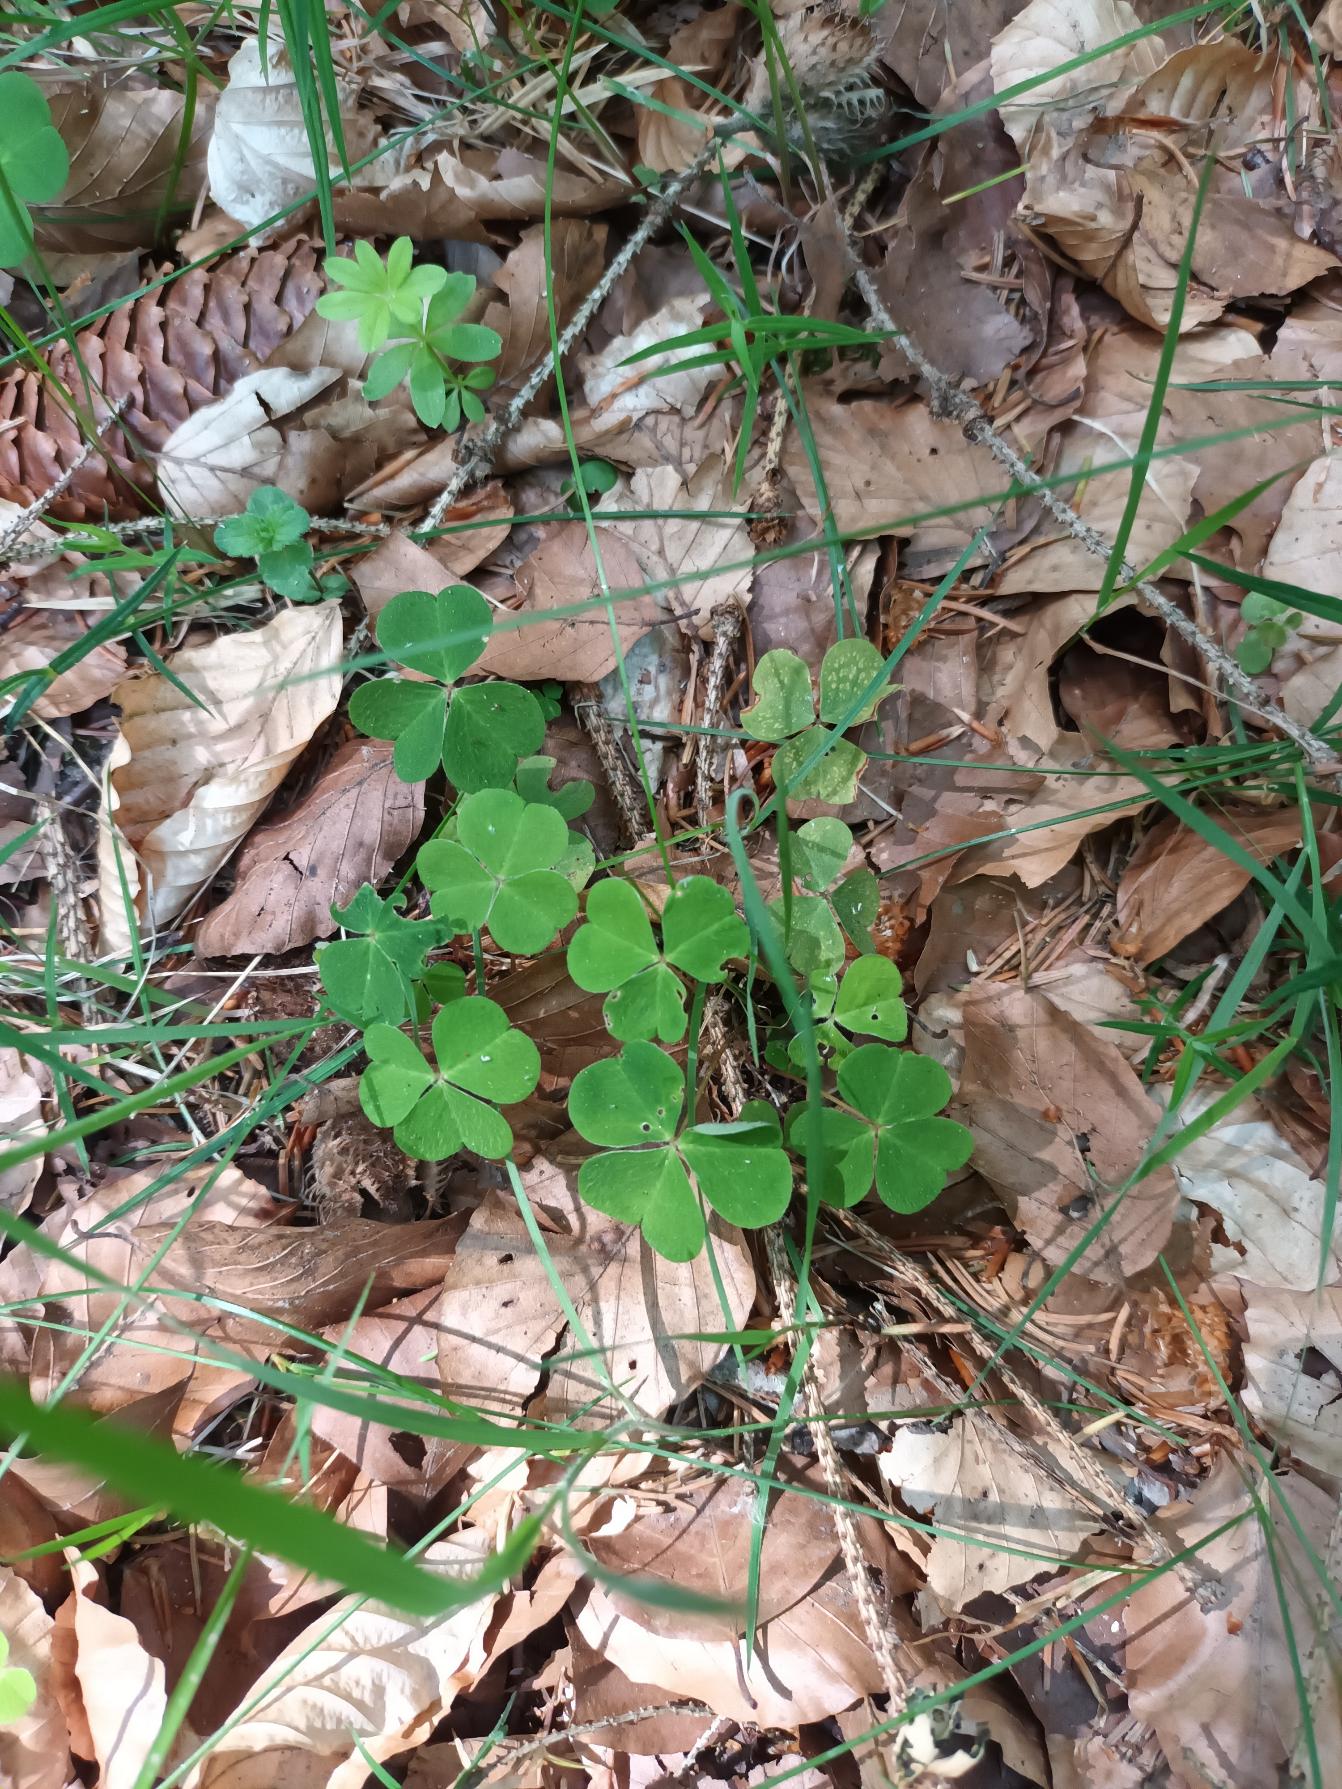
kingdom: Plantae
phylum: Tracheophyta
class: Magnoliopsida
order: Oxalidales
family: Oxalidaceae
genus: Oxalis
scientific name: Oxalis acetosella
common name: Skovsyre
